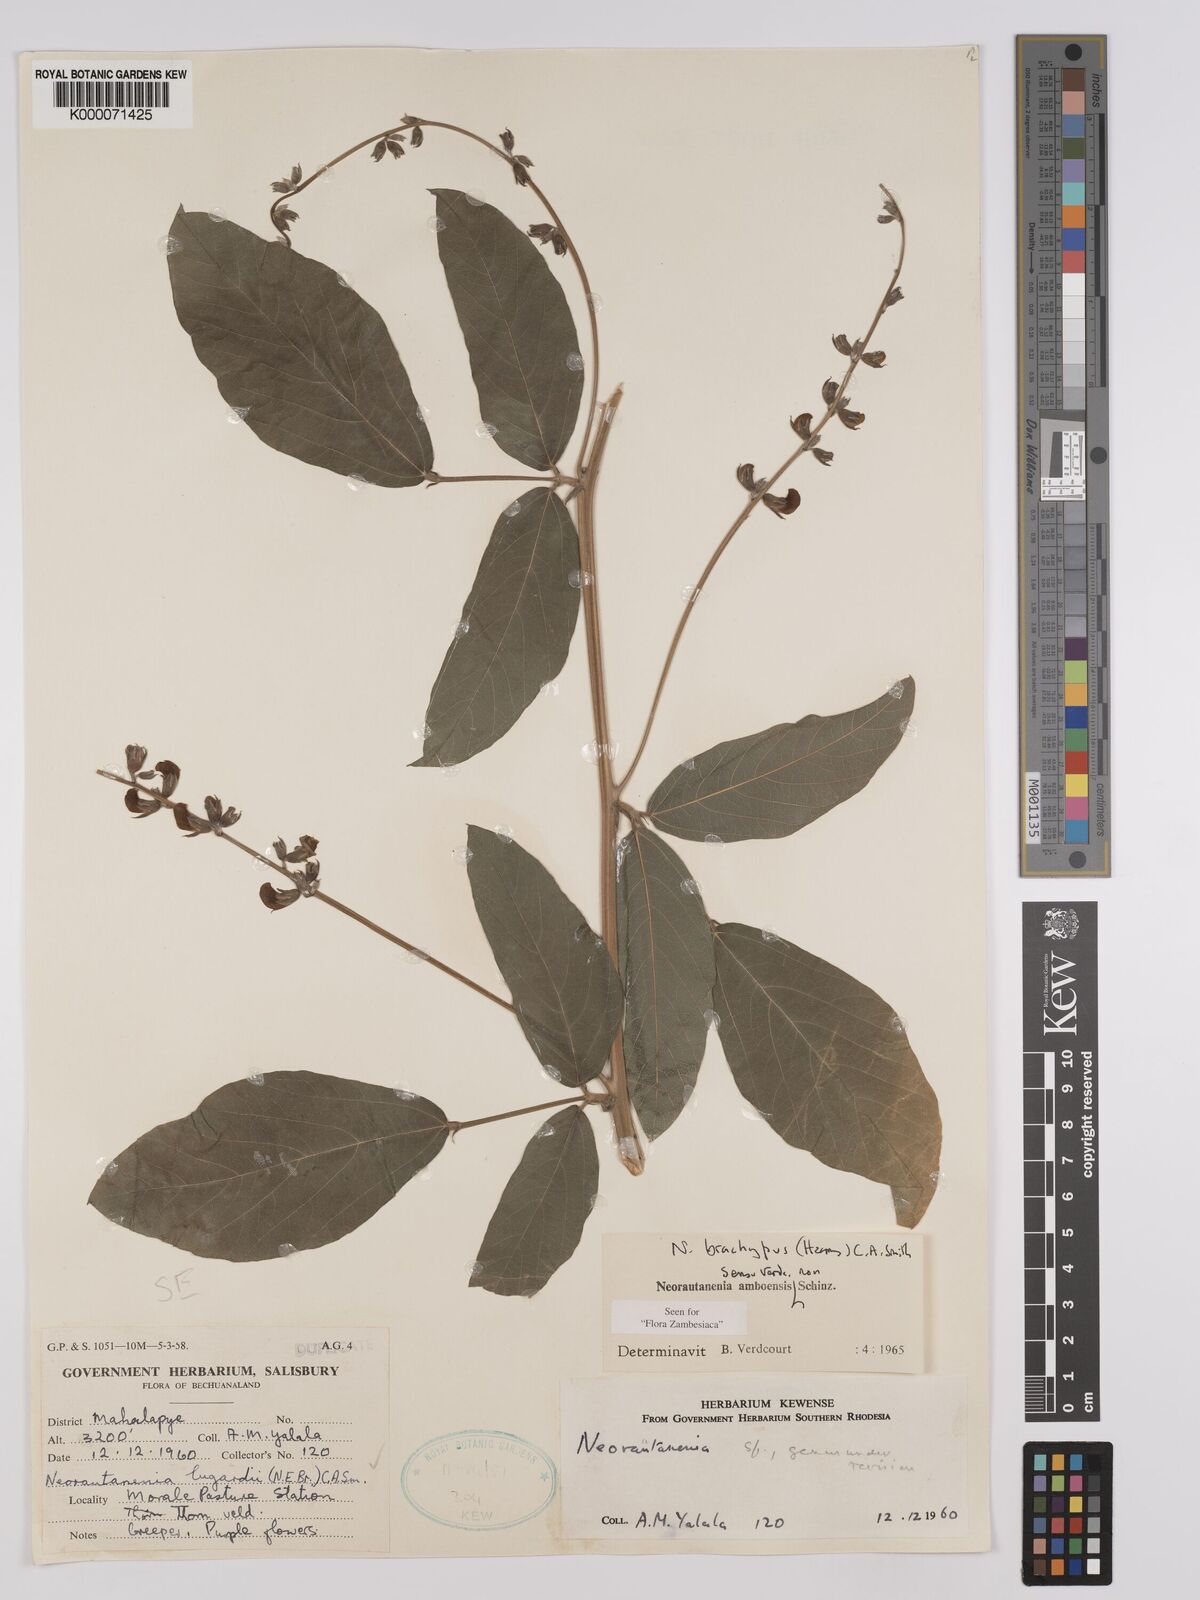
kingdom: Plantae
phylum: Tracheophyta
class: Magnoliopsida
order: Fabales
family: Fabaceae
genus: Neorautanenia
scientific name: Neorautanenia
